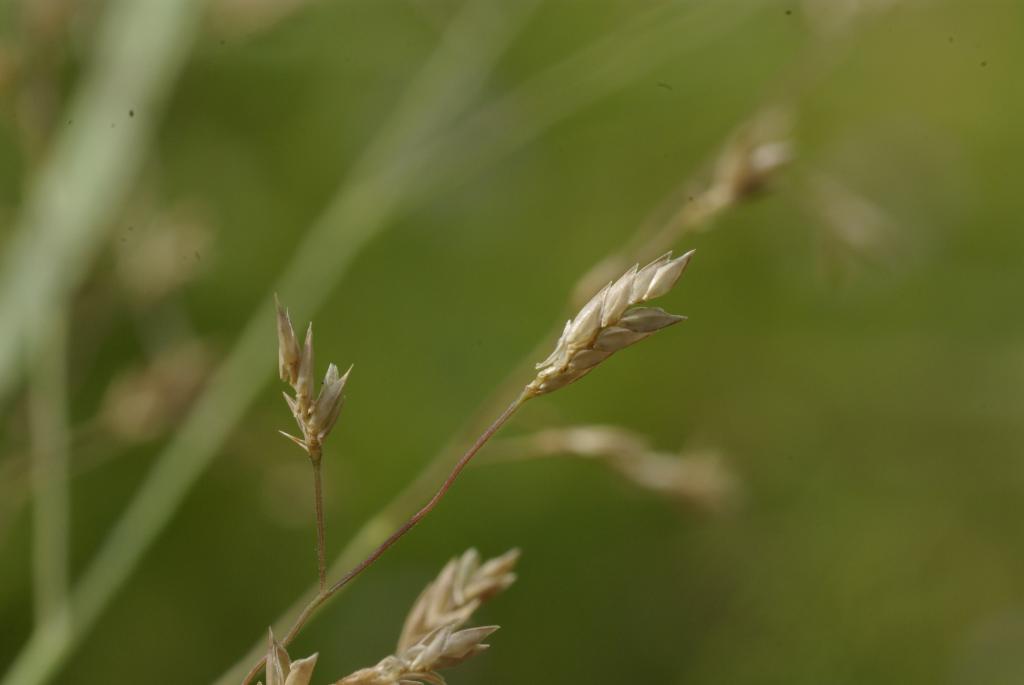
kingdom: Plantae
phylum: Tracheophyta
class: Liliopsida
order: Poales
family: Poaceae
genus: Eragrostis
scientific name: Eragrostis pilosa
